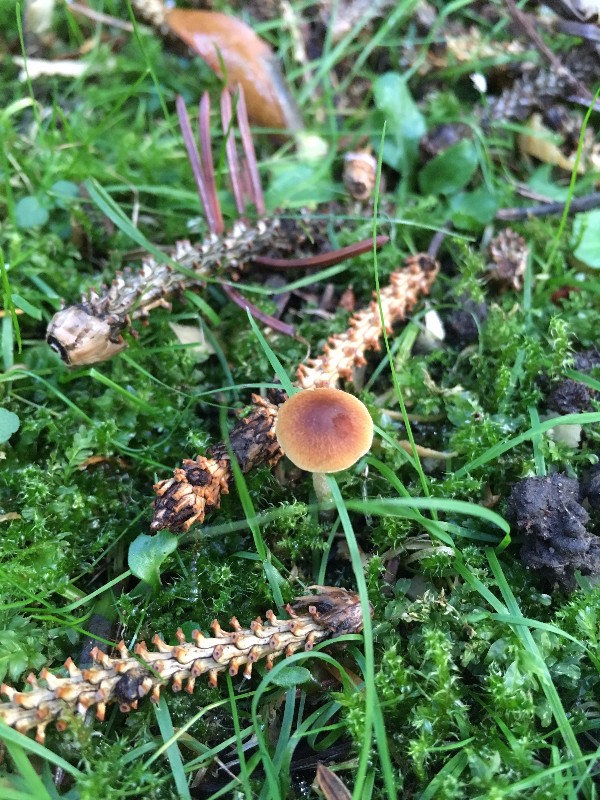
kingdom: Fungi
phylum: Basidiomycota
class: Agaricomycetes
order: Agaricales
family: Bolbitiaceae
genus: Conocybe
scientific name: Conocybe arrhenii
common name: ring-dansehat
